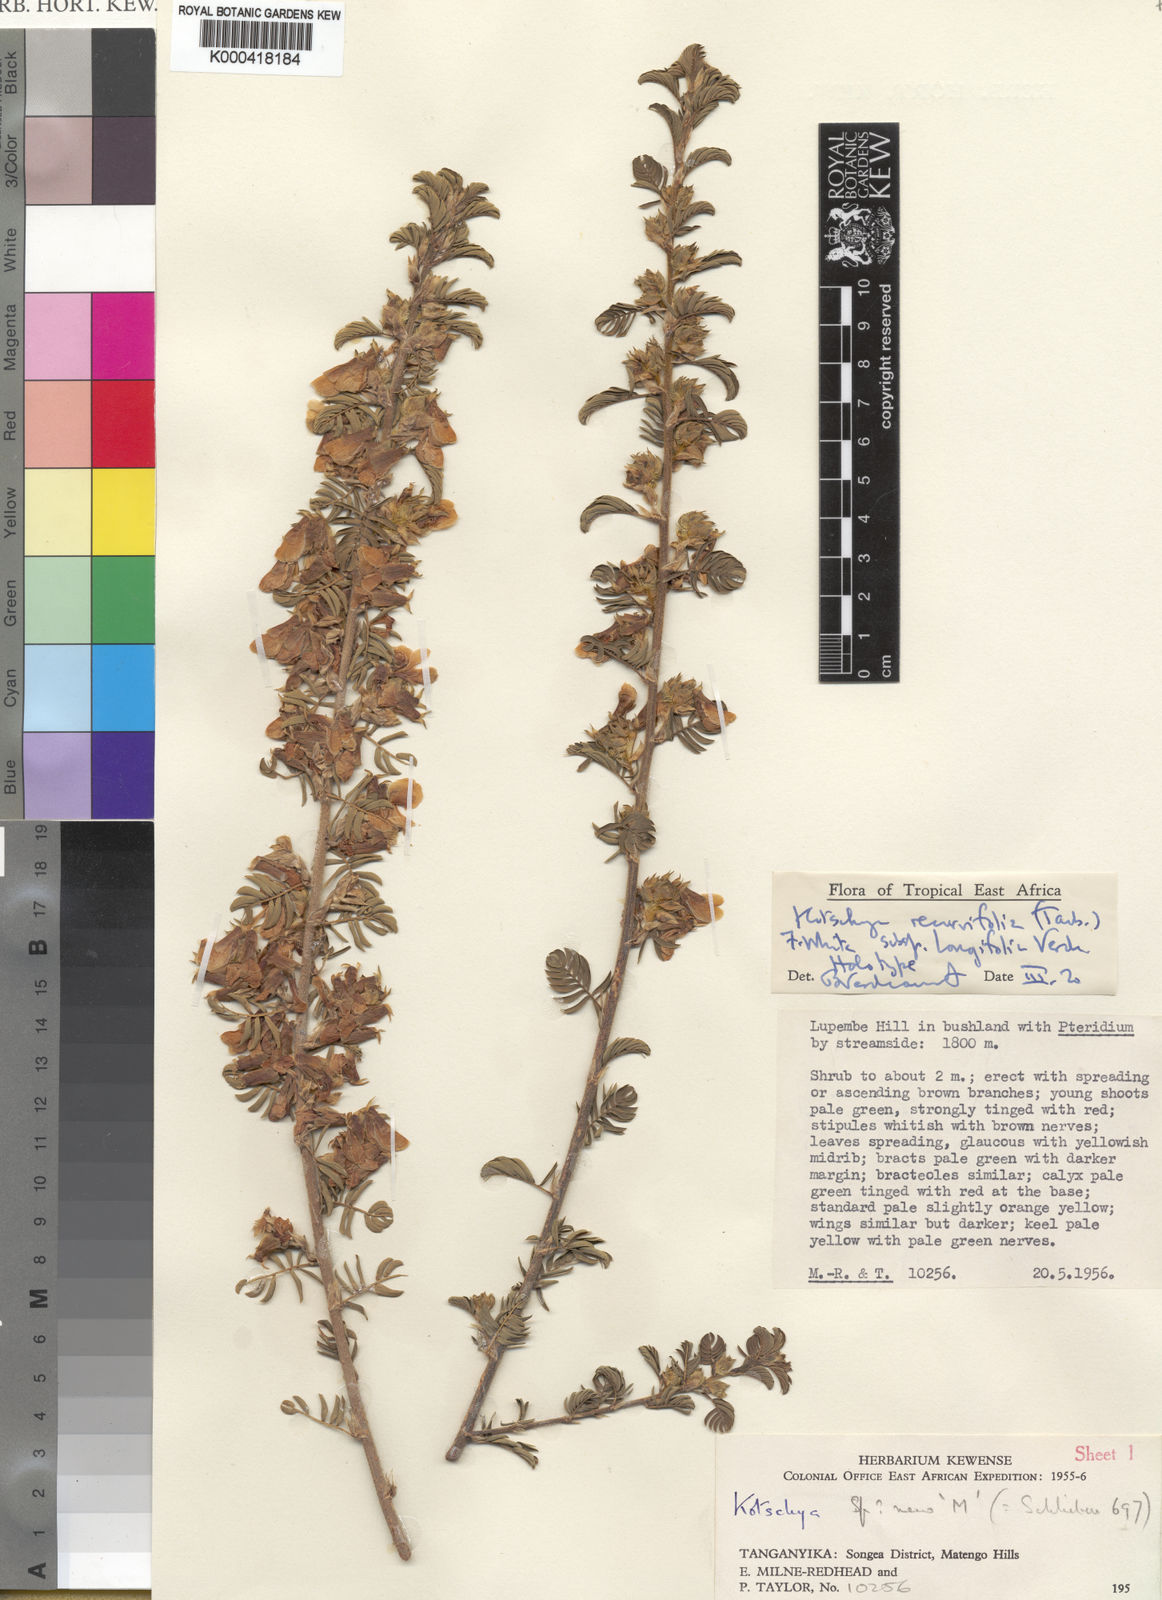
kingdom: Plantae
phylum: Tracheophyta
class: Magnoliopsida
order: Fabales
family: Fabaceae
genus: Kotschya
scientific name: Kotschya recurvifolia
